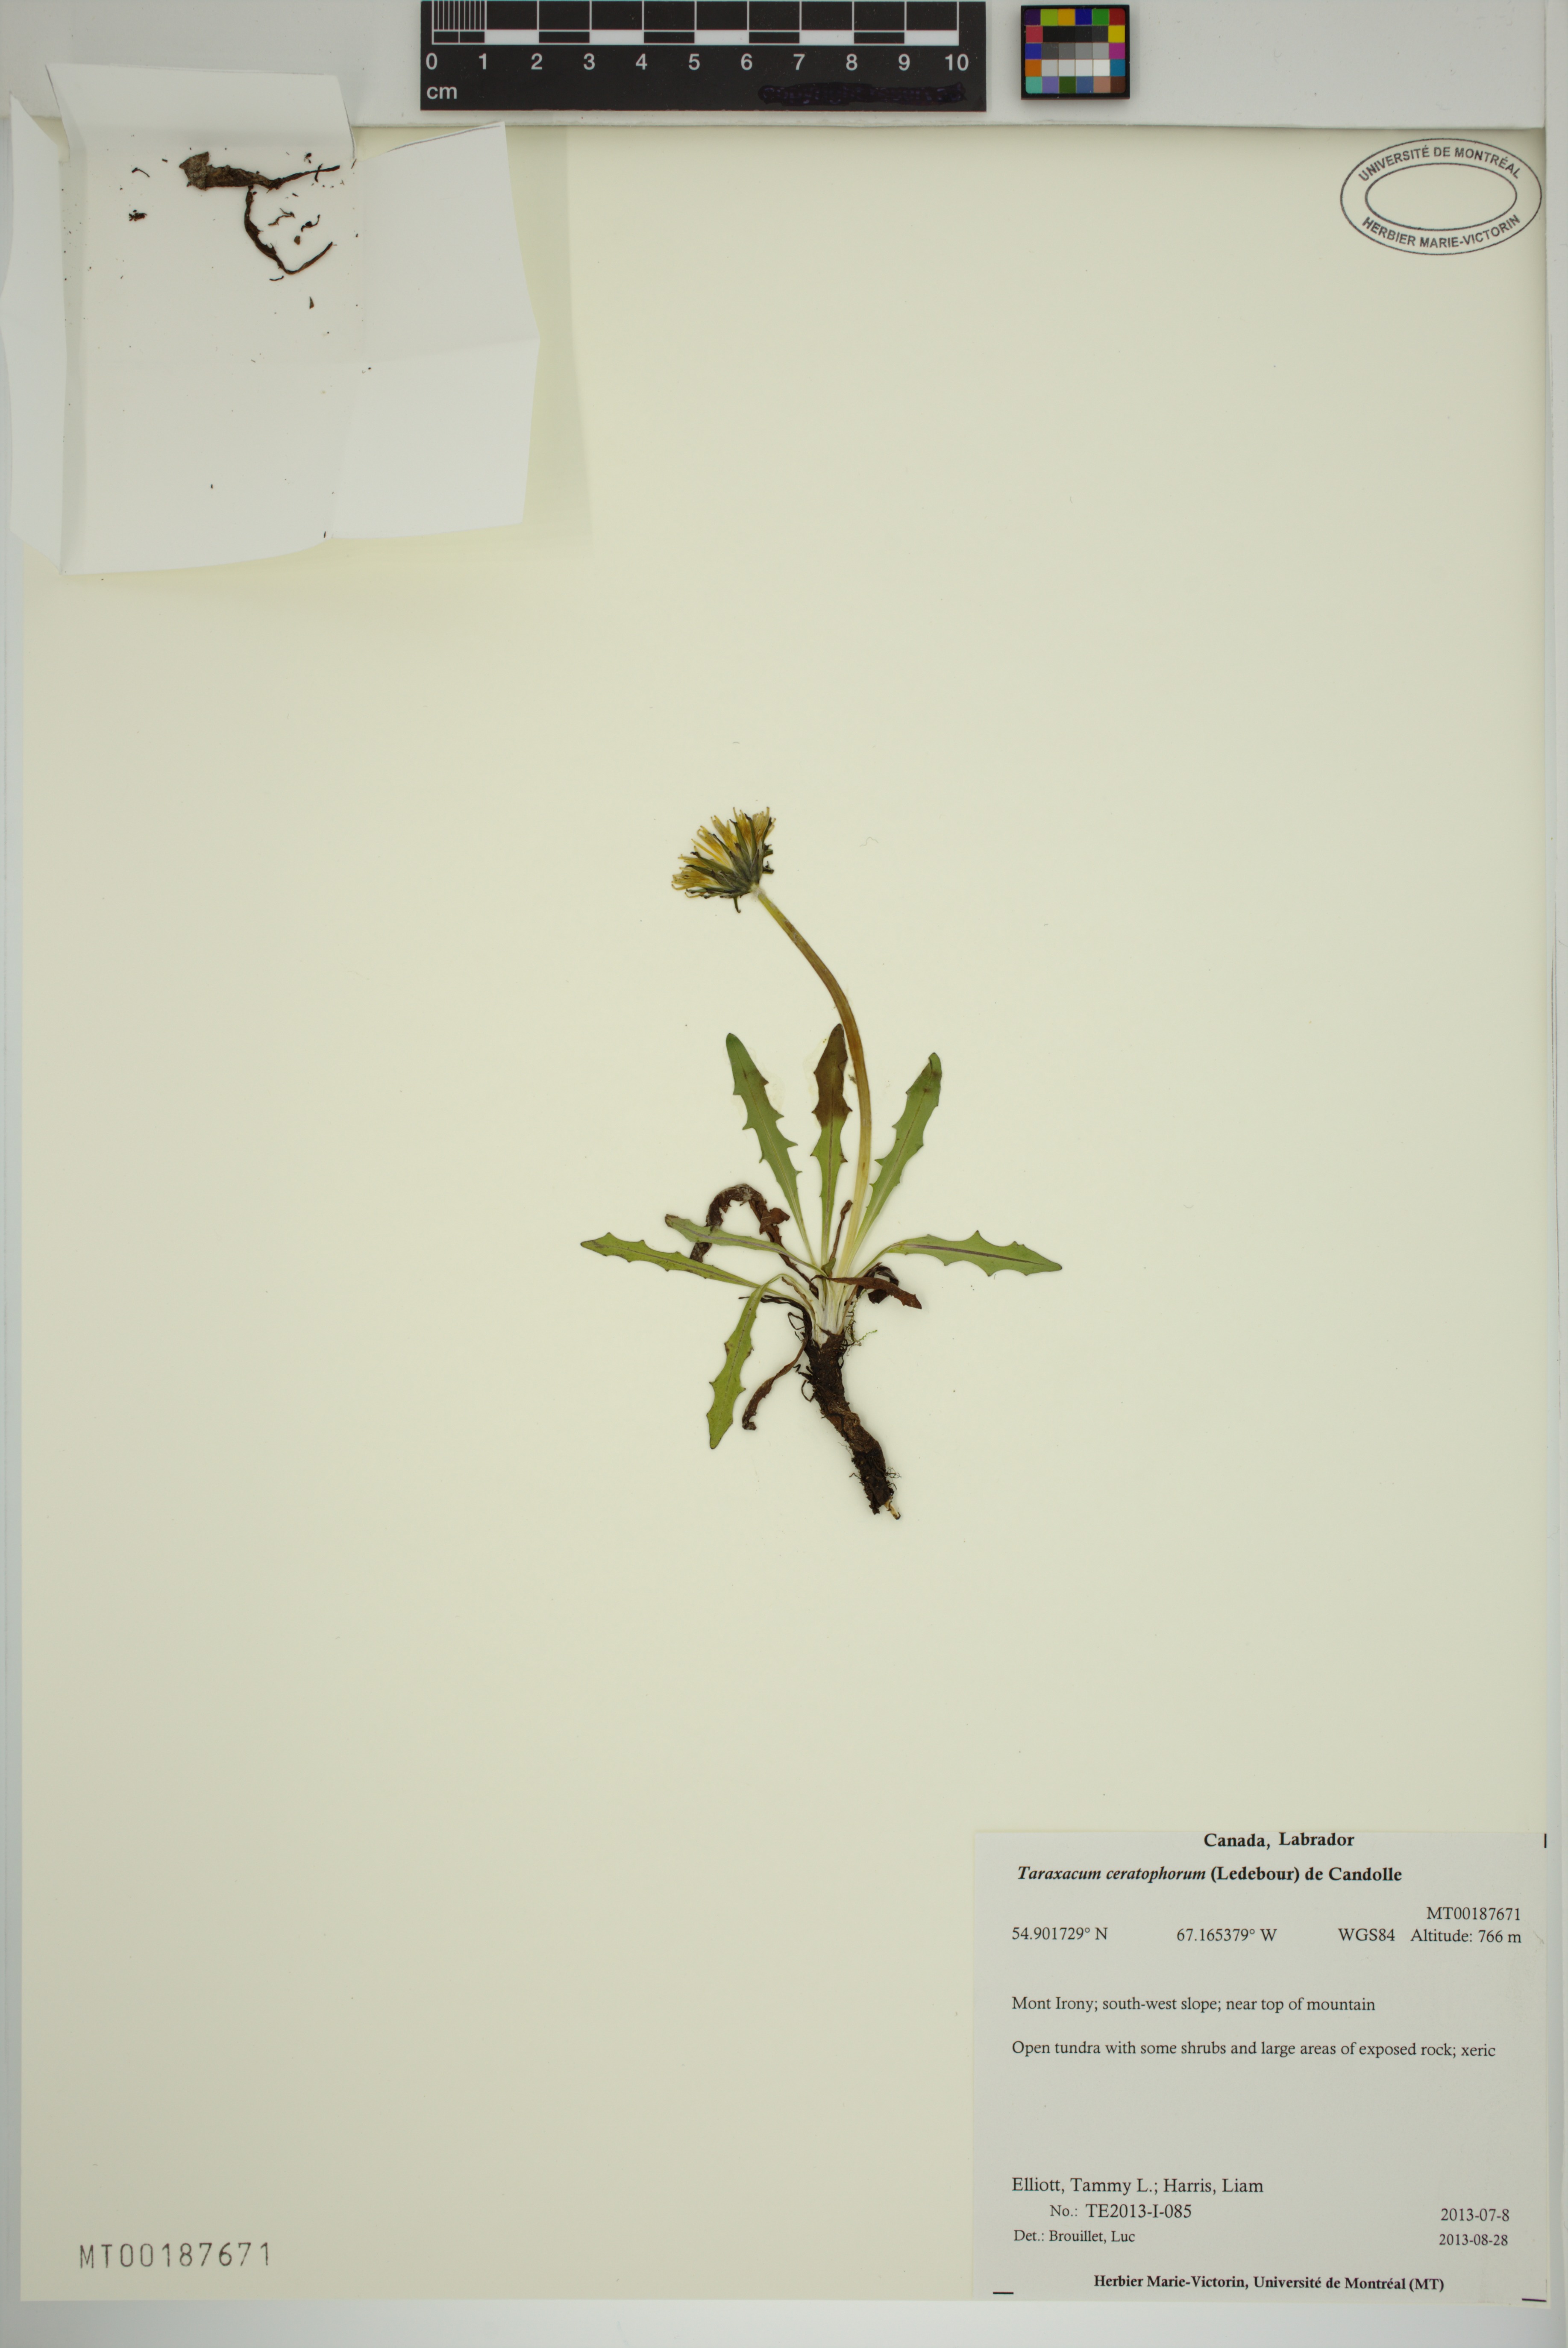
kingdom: Plantae
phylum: Tracheophyta
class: Magnoliopsida
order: Asterales
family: Asteraceae
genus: Taraxacum
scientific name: Taraxacum ceratophorum
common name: Horn-bearing dandelion
